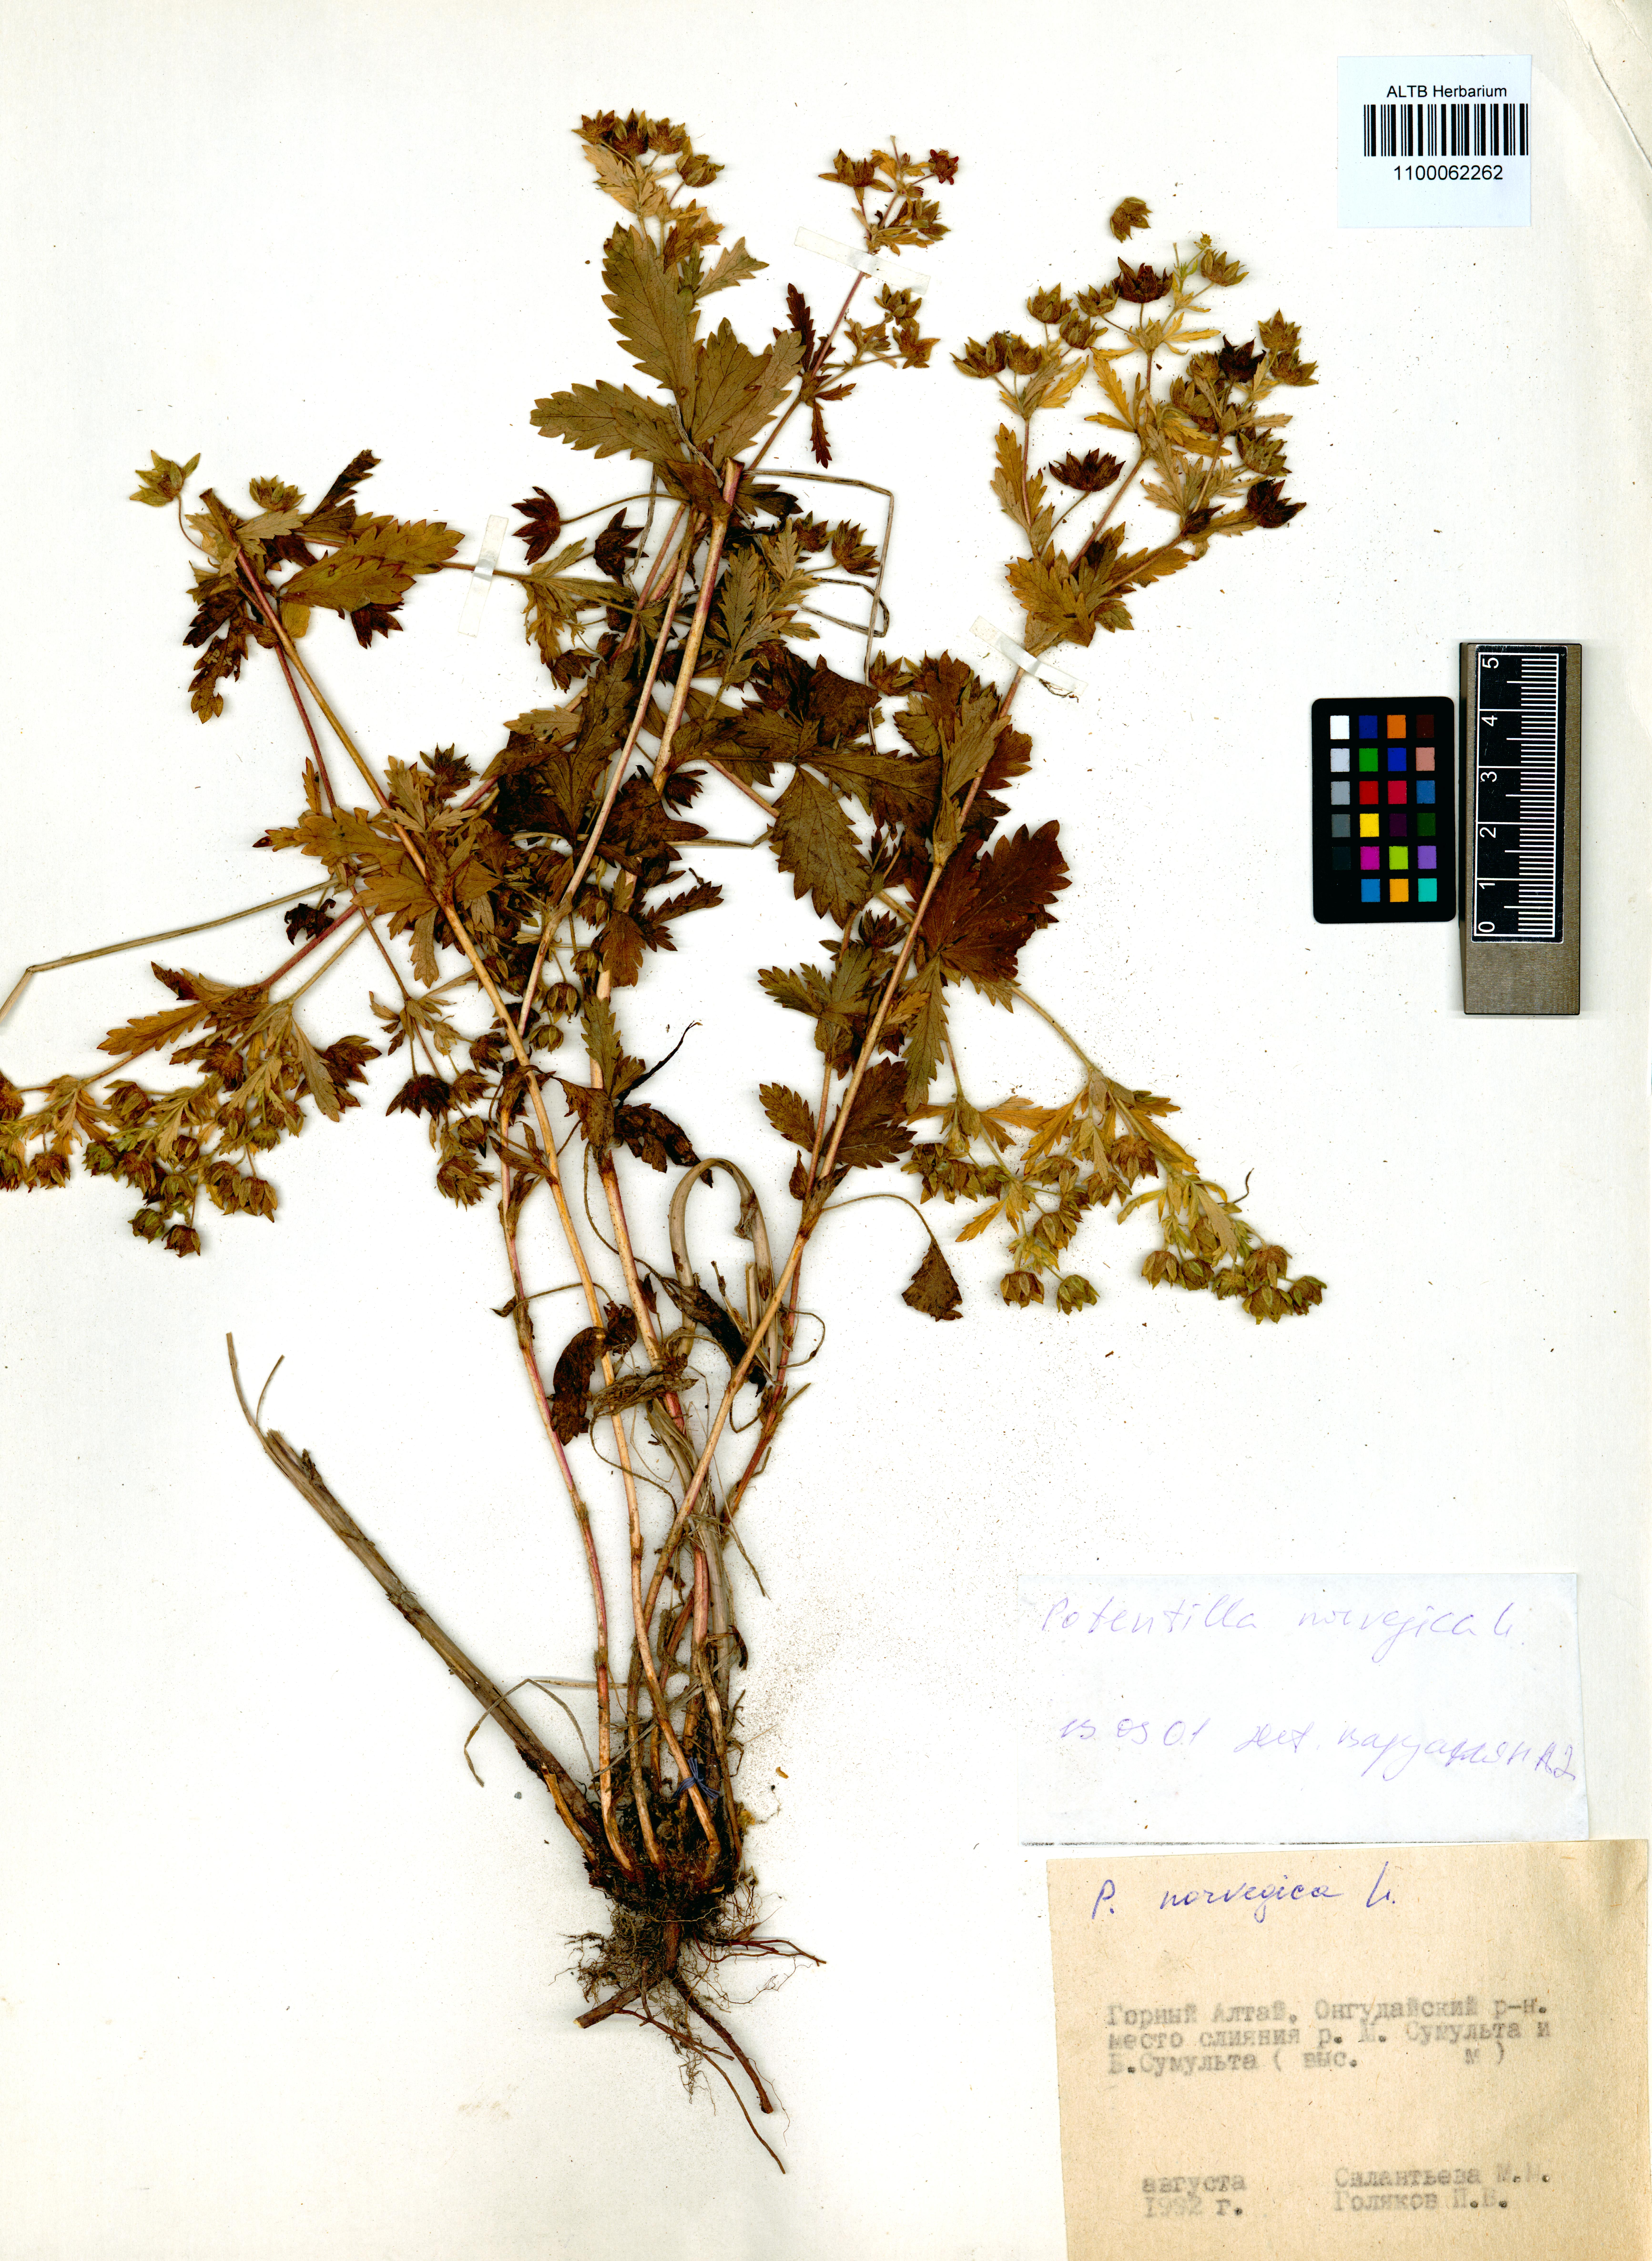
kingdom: Plantae
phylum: Tracheophyta
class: Magnoliopsida
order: Rosales
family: Rosaceae
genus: Potentilla
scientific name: Potentilla norvegica
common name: Ternate-leaved cinquefoil
